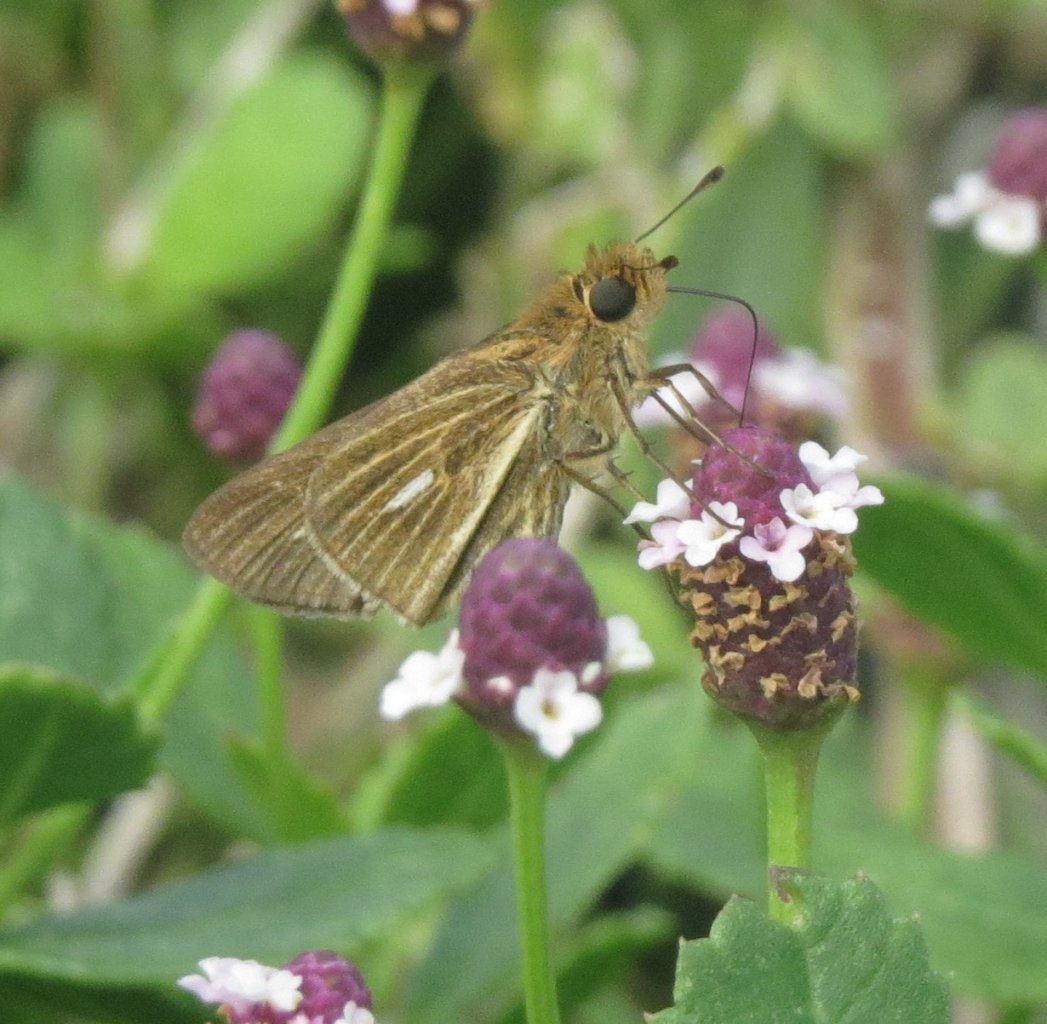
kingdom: Animalia
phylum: Arthropoda
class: Insecta
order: Lepidoptera
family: Hesperiidae
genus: Panoquina
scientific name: Panoquina panoquin
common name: Salt Marsh Skipper
